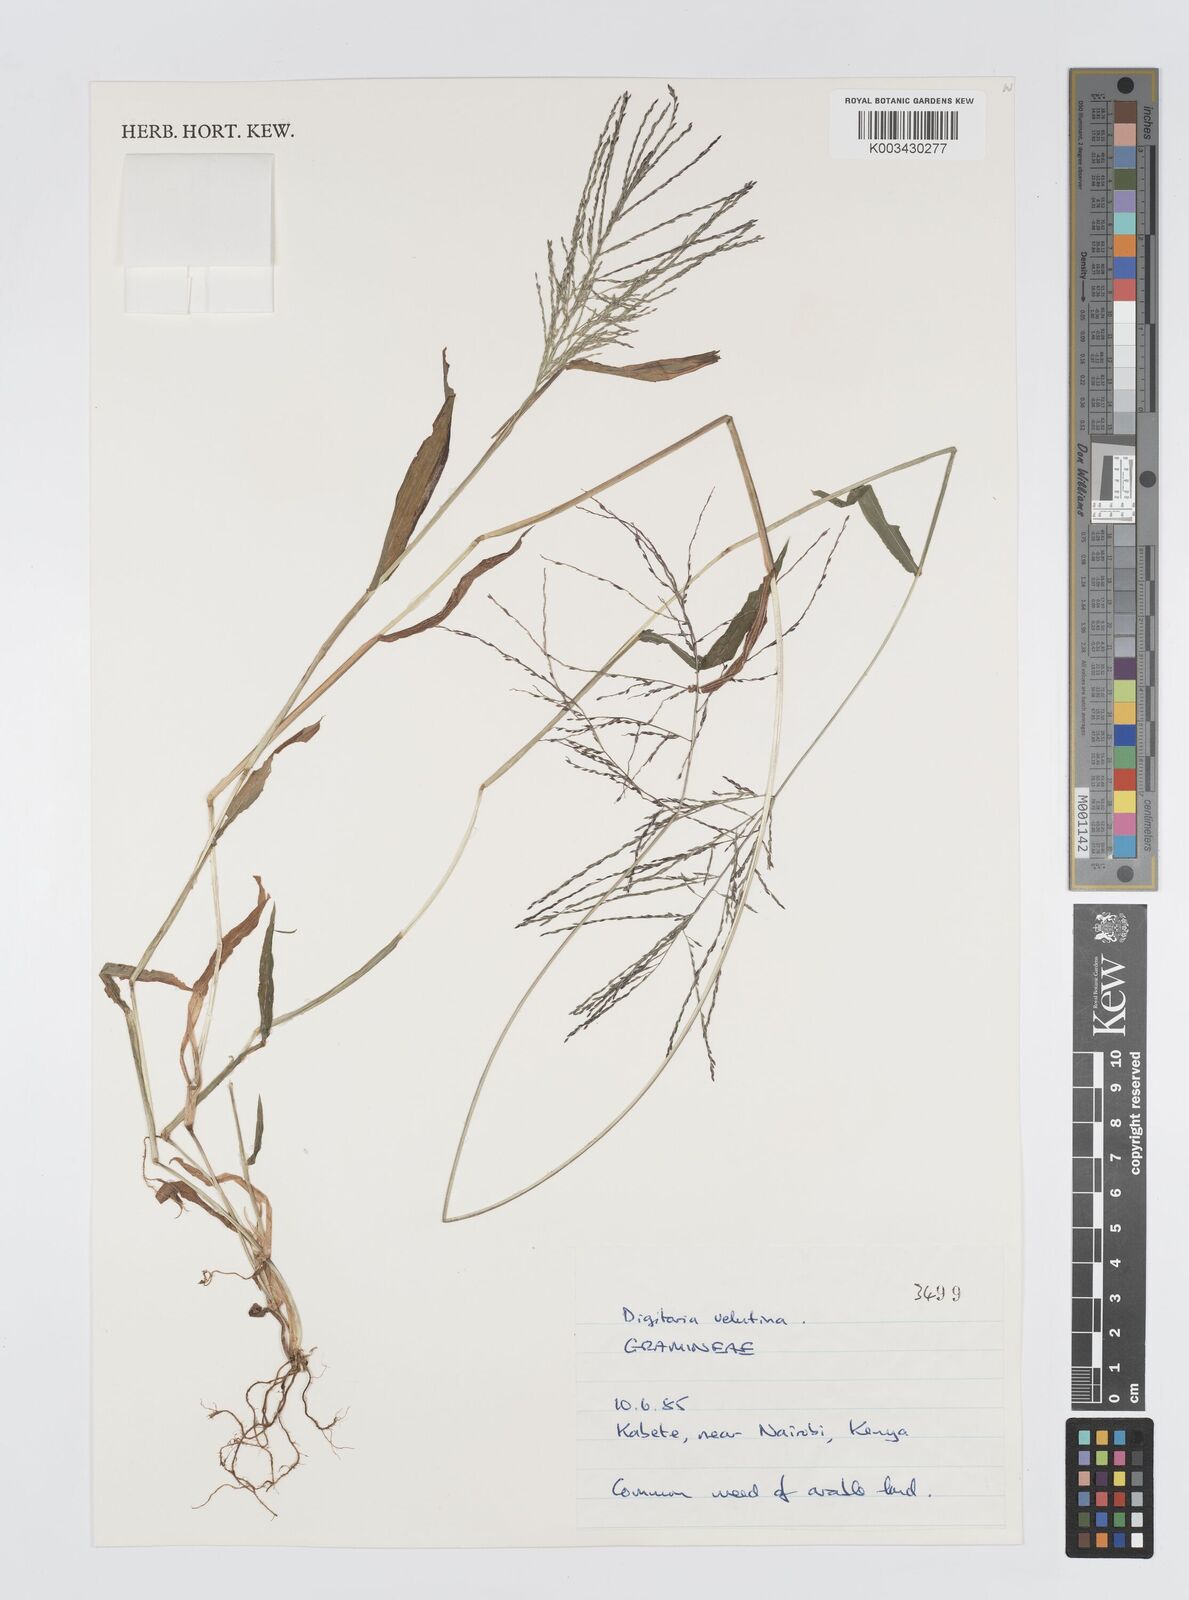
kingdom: Plantae
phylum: Tracheophyta
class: Liliopsida
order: Poales
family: Poaceae
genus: Digitaria
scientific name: Digitaria velutina
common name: Long-plume finger grass
